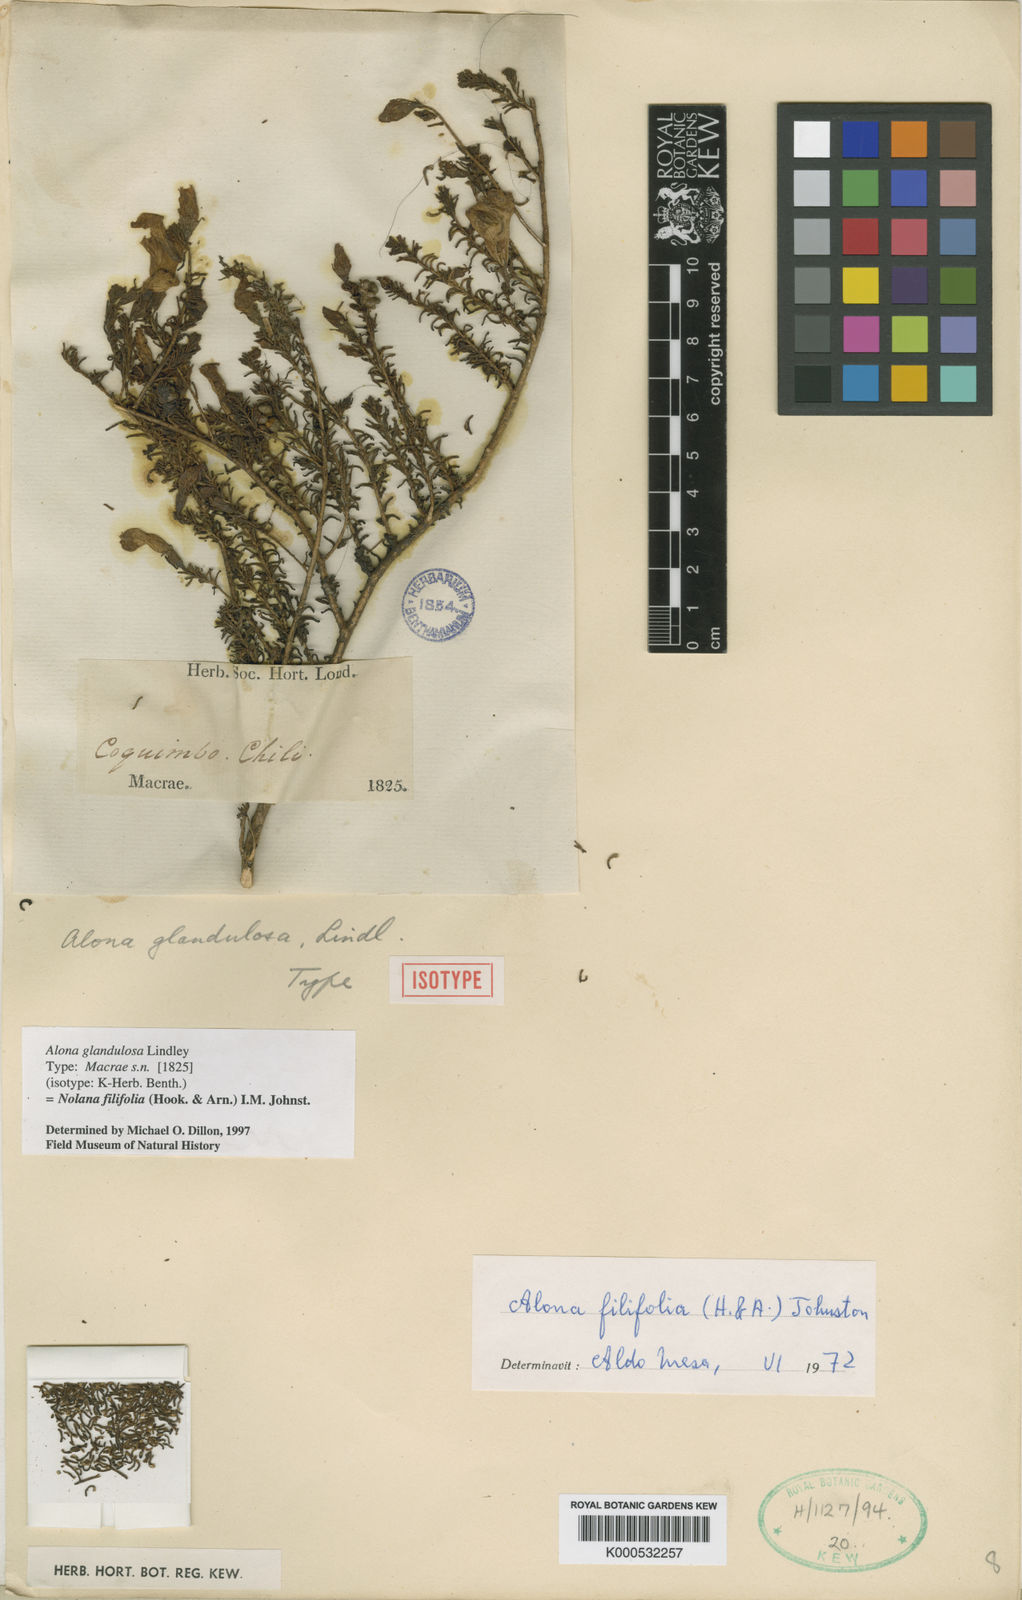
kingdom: Plantae
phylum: Tracheophyta
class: Magnoliopsida
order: Solanales
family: Solanaceae
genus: Nolana
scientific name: Nolana filifolia
